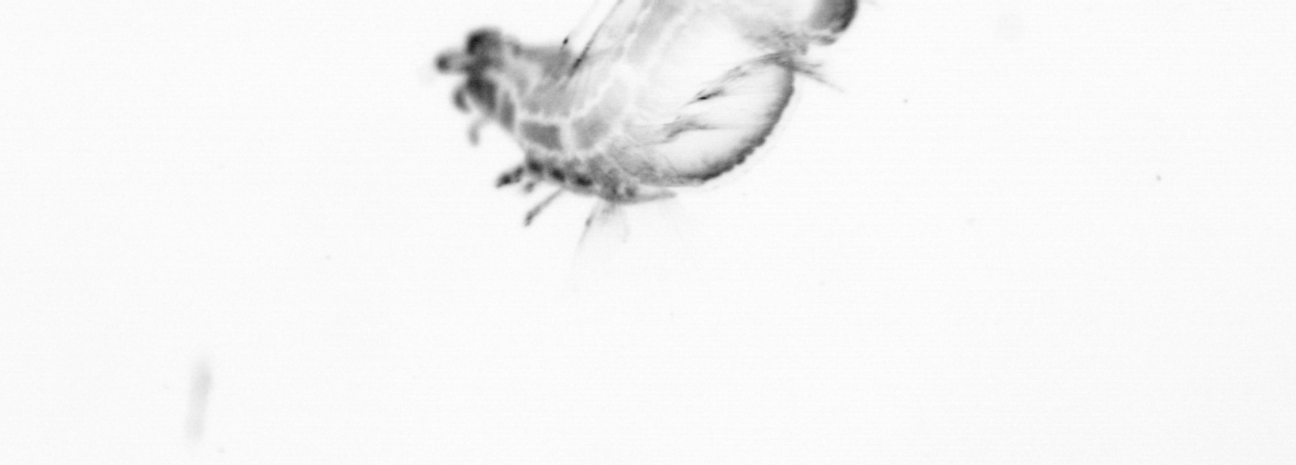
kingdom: Animalia
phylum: Annelida
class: Polychaeta
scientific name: Polychaeta
